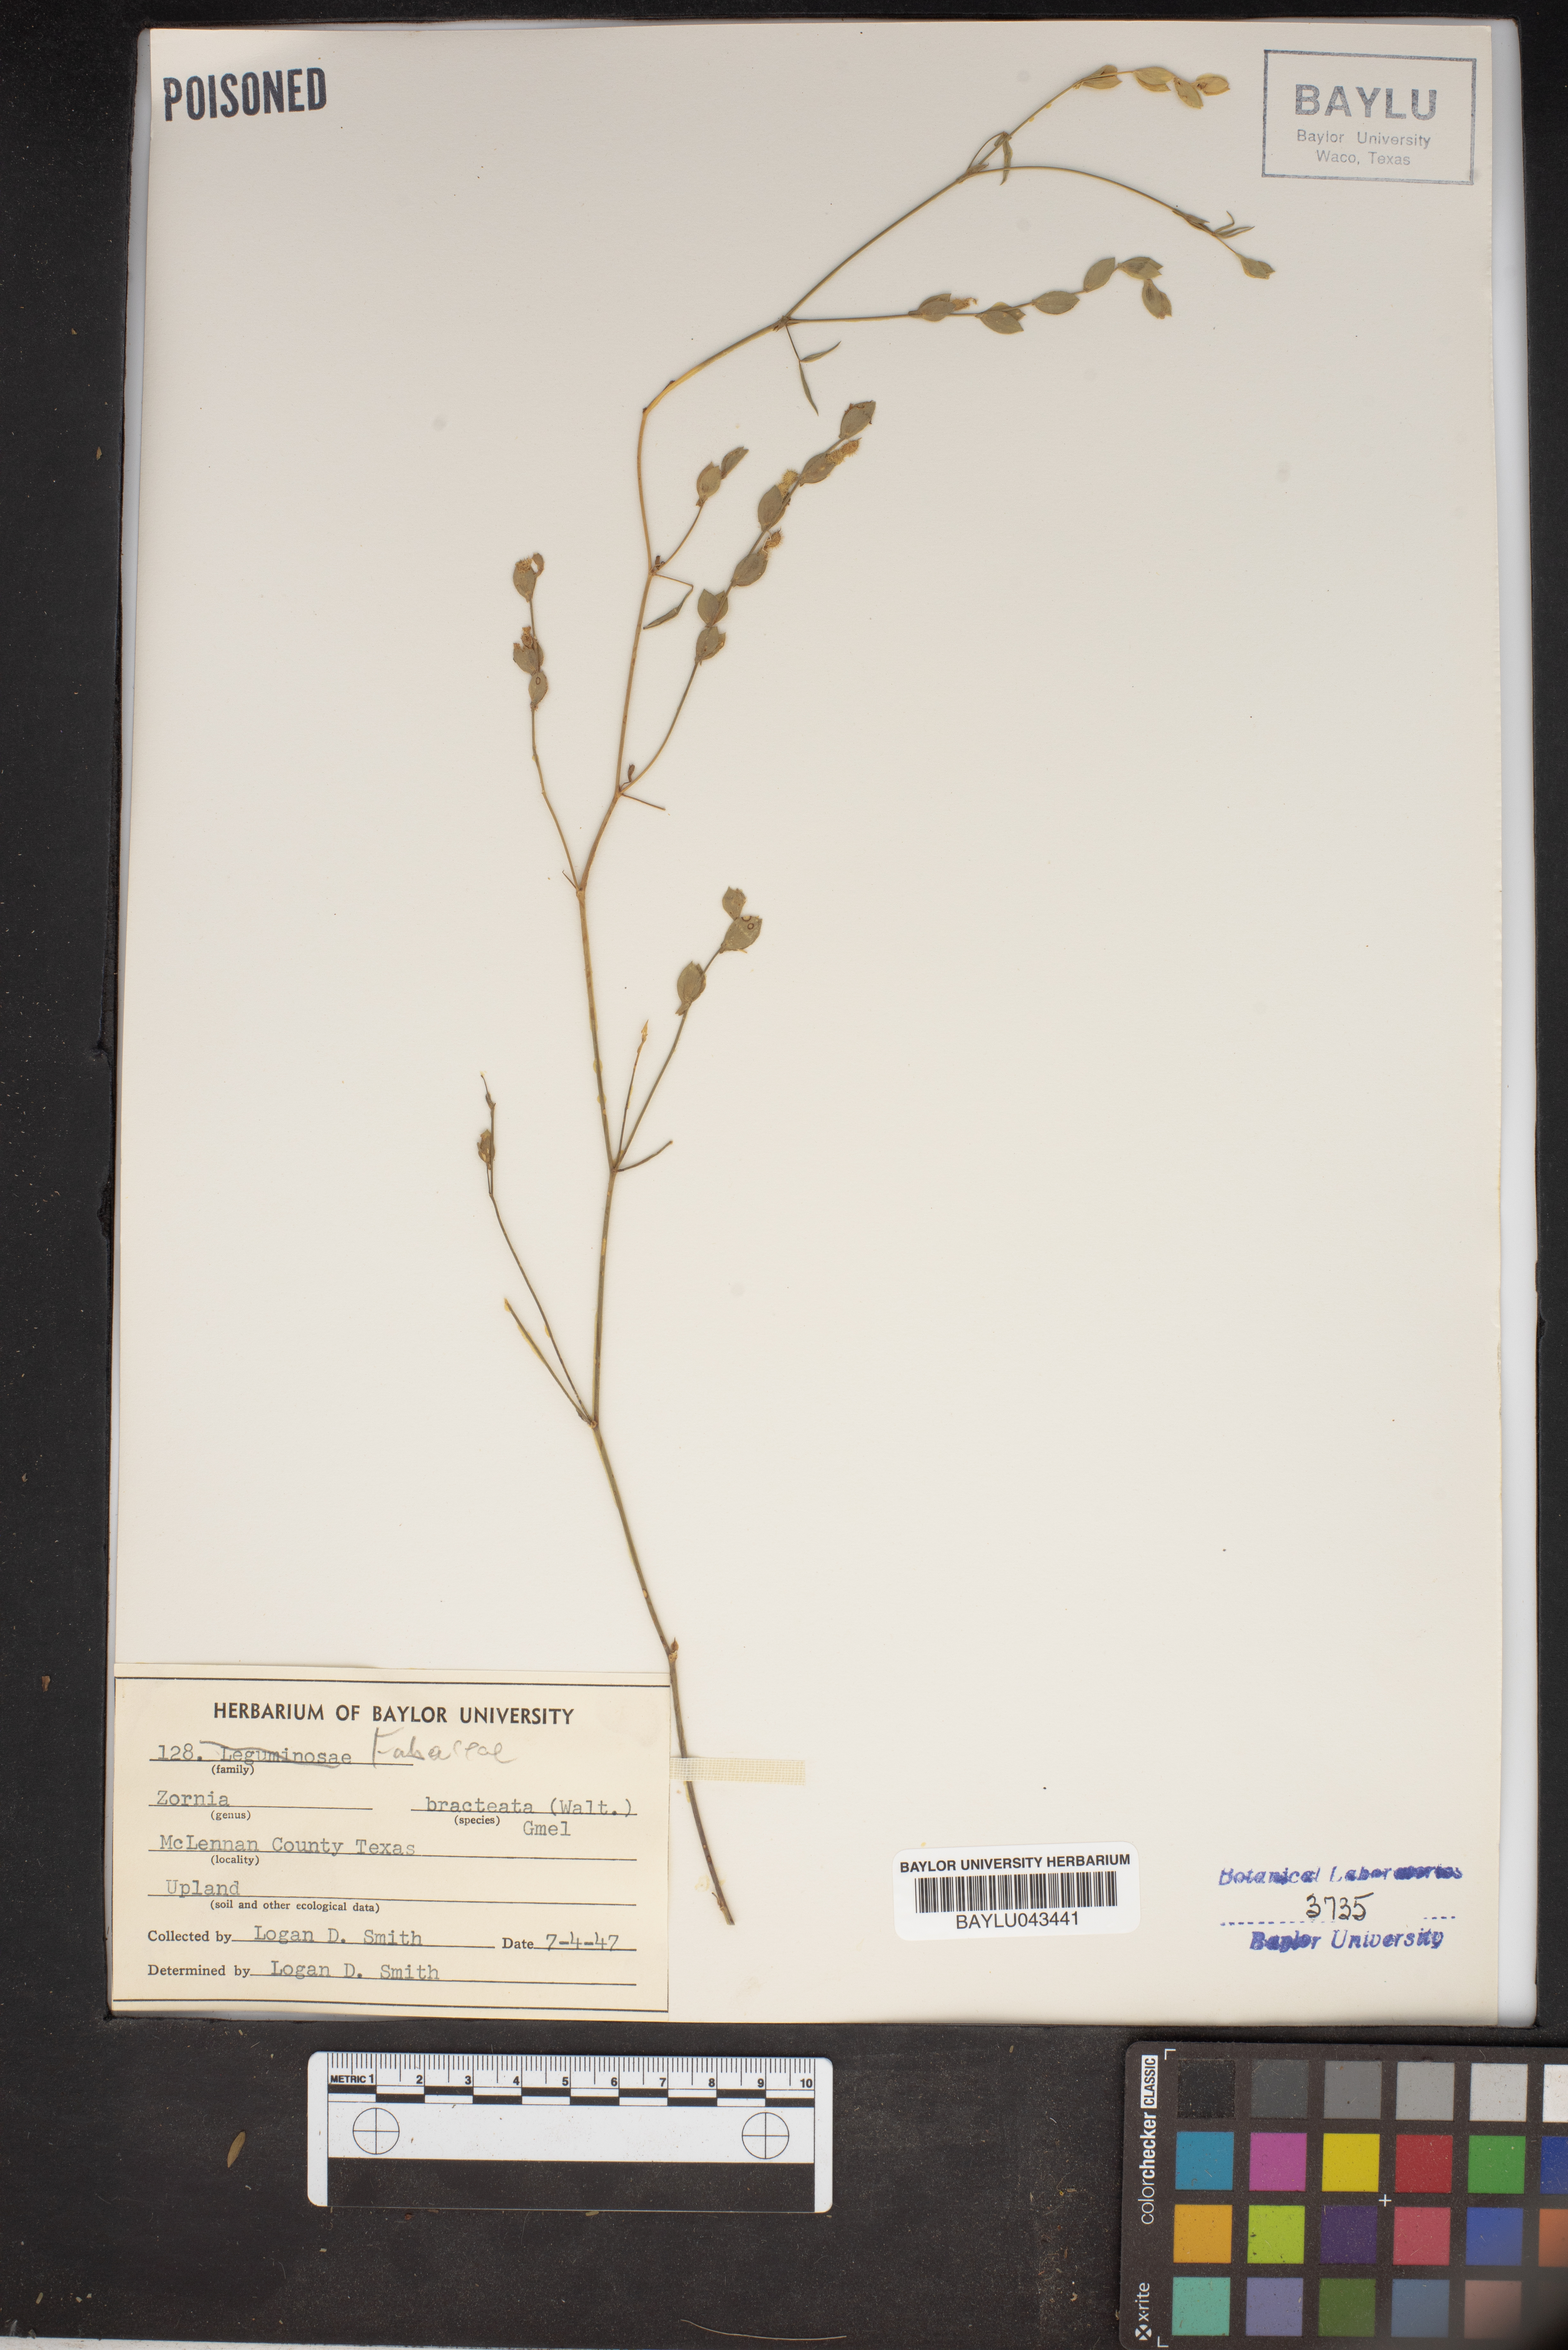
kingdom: Plantae
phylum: Tracheophyta
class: Magnoliopsida
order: Fabales
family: Fabaceae
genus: Zornia
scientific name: Zornia bracteata
